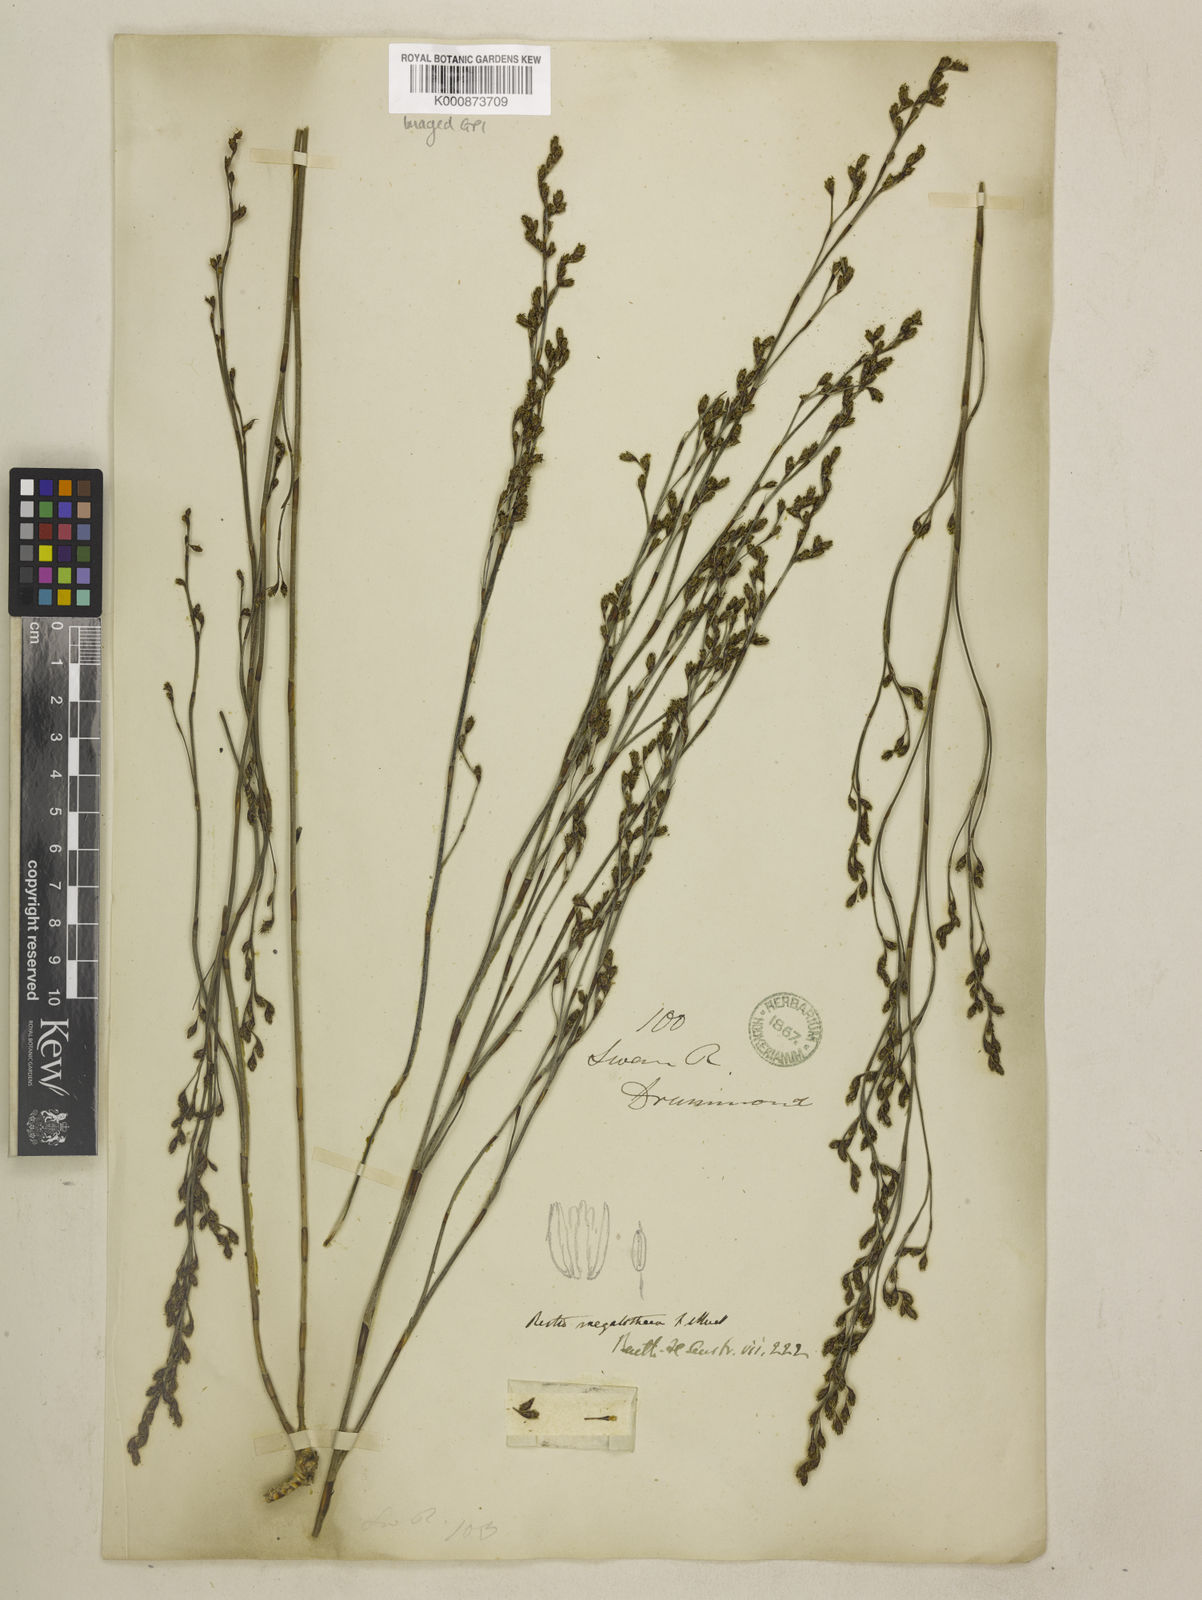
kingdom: Plantae
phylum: Tracheophyta
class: Liliopsida
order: Poales
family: Restionaceae
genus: Loxocarya
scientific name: Loxocarya striata
